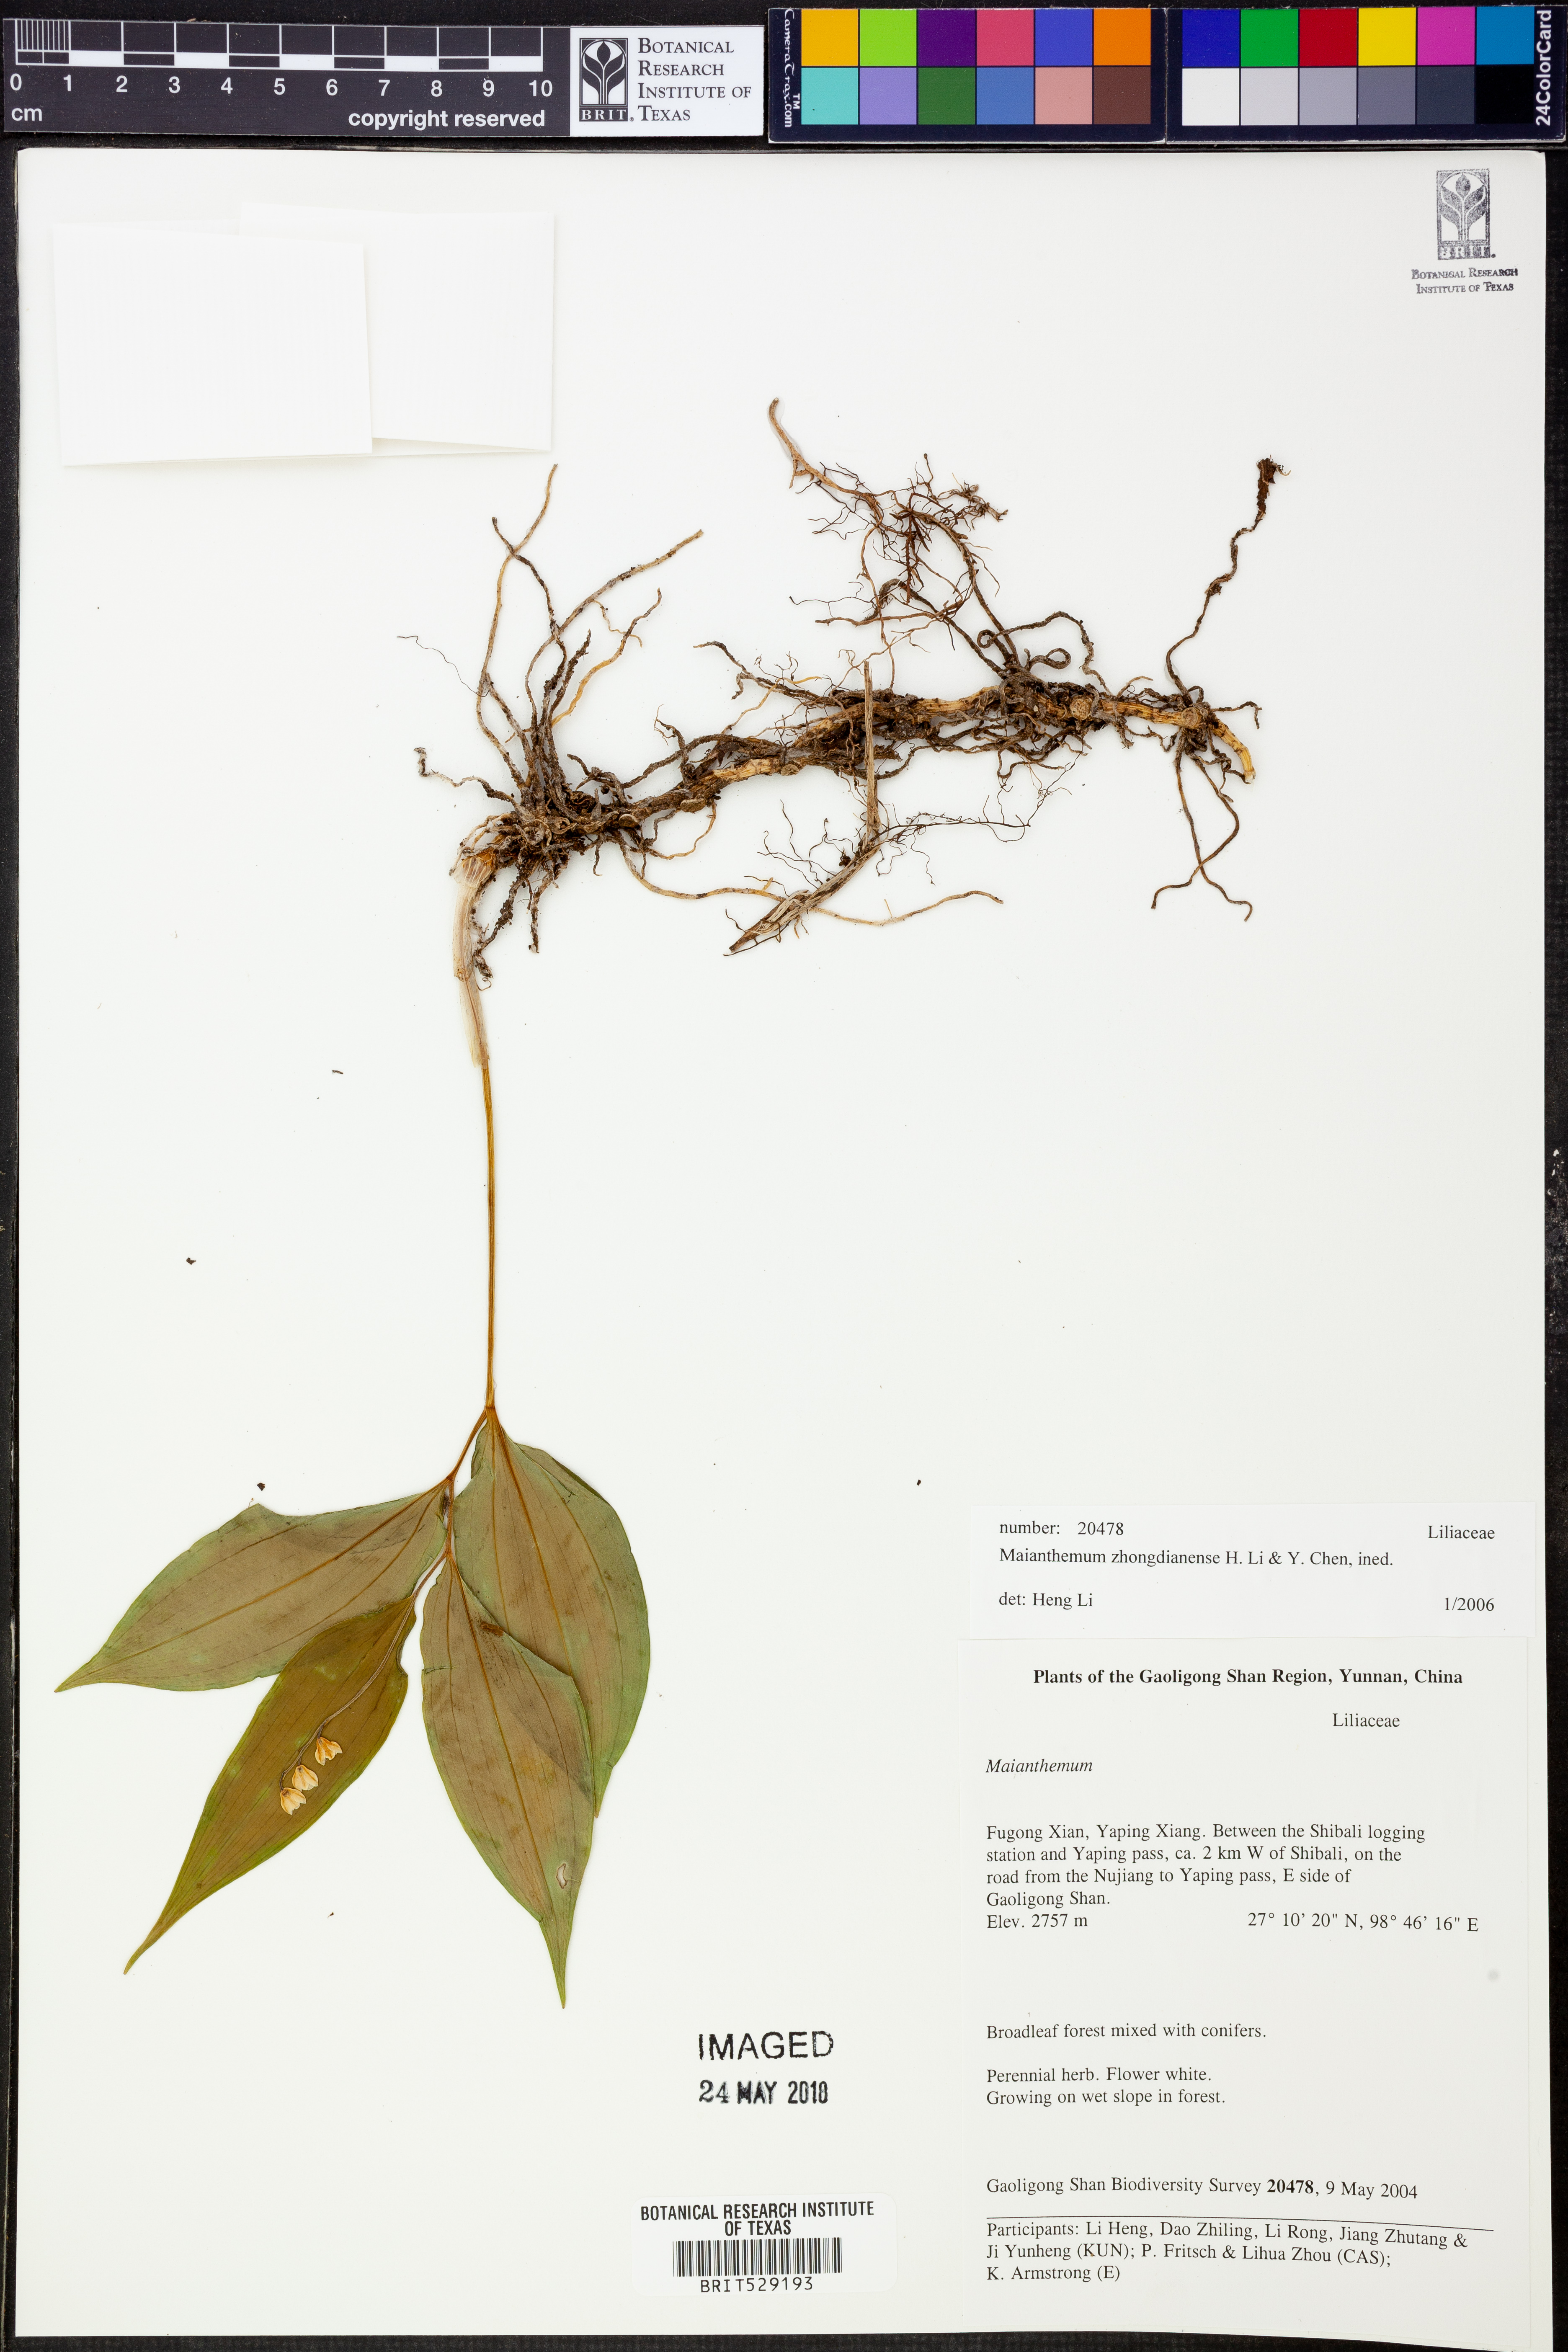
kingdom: Plantae
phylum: Tracheophyta
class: Liliopsida
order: Asparagales
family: Asparagaceae
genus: Maianthemum
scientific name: Maianthemum
